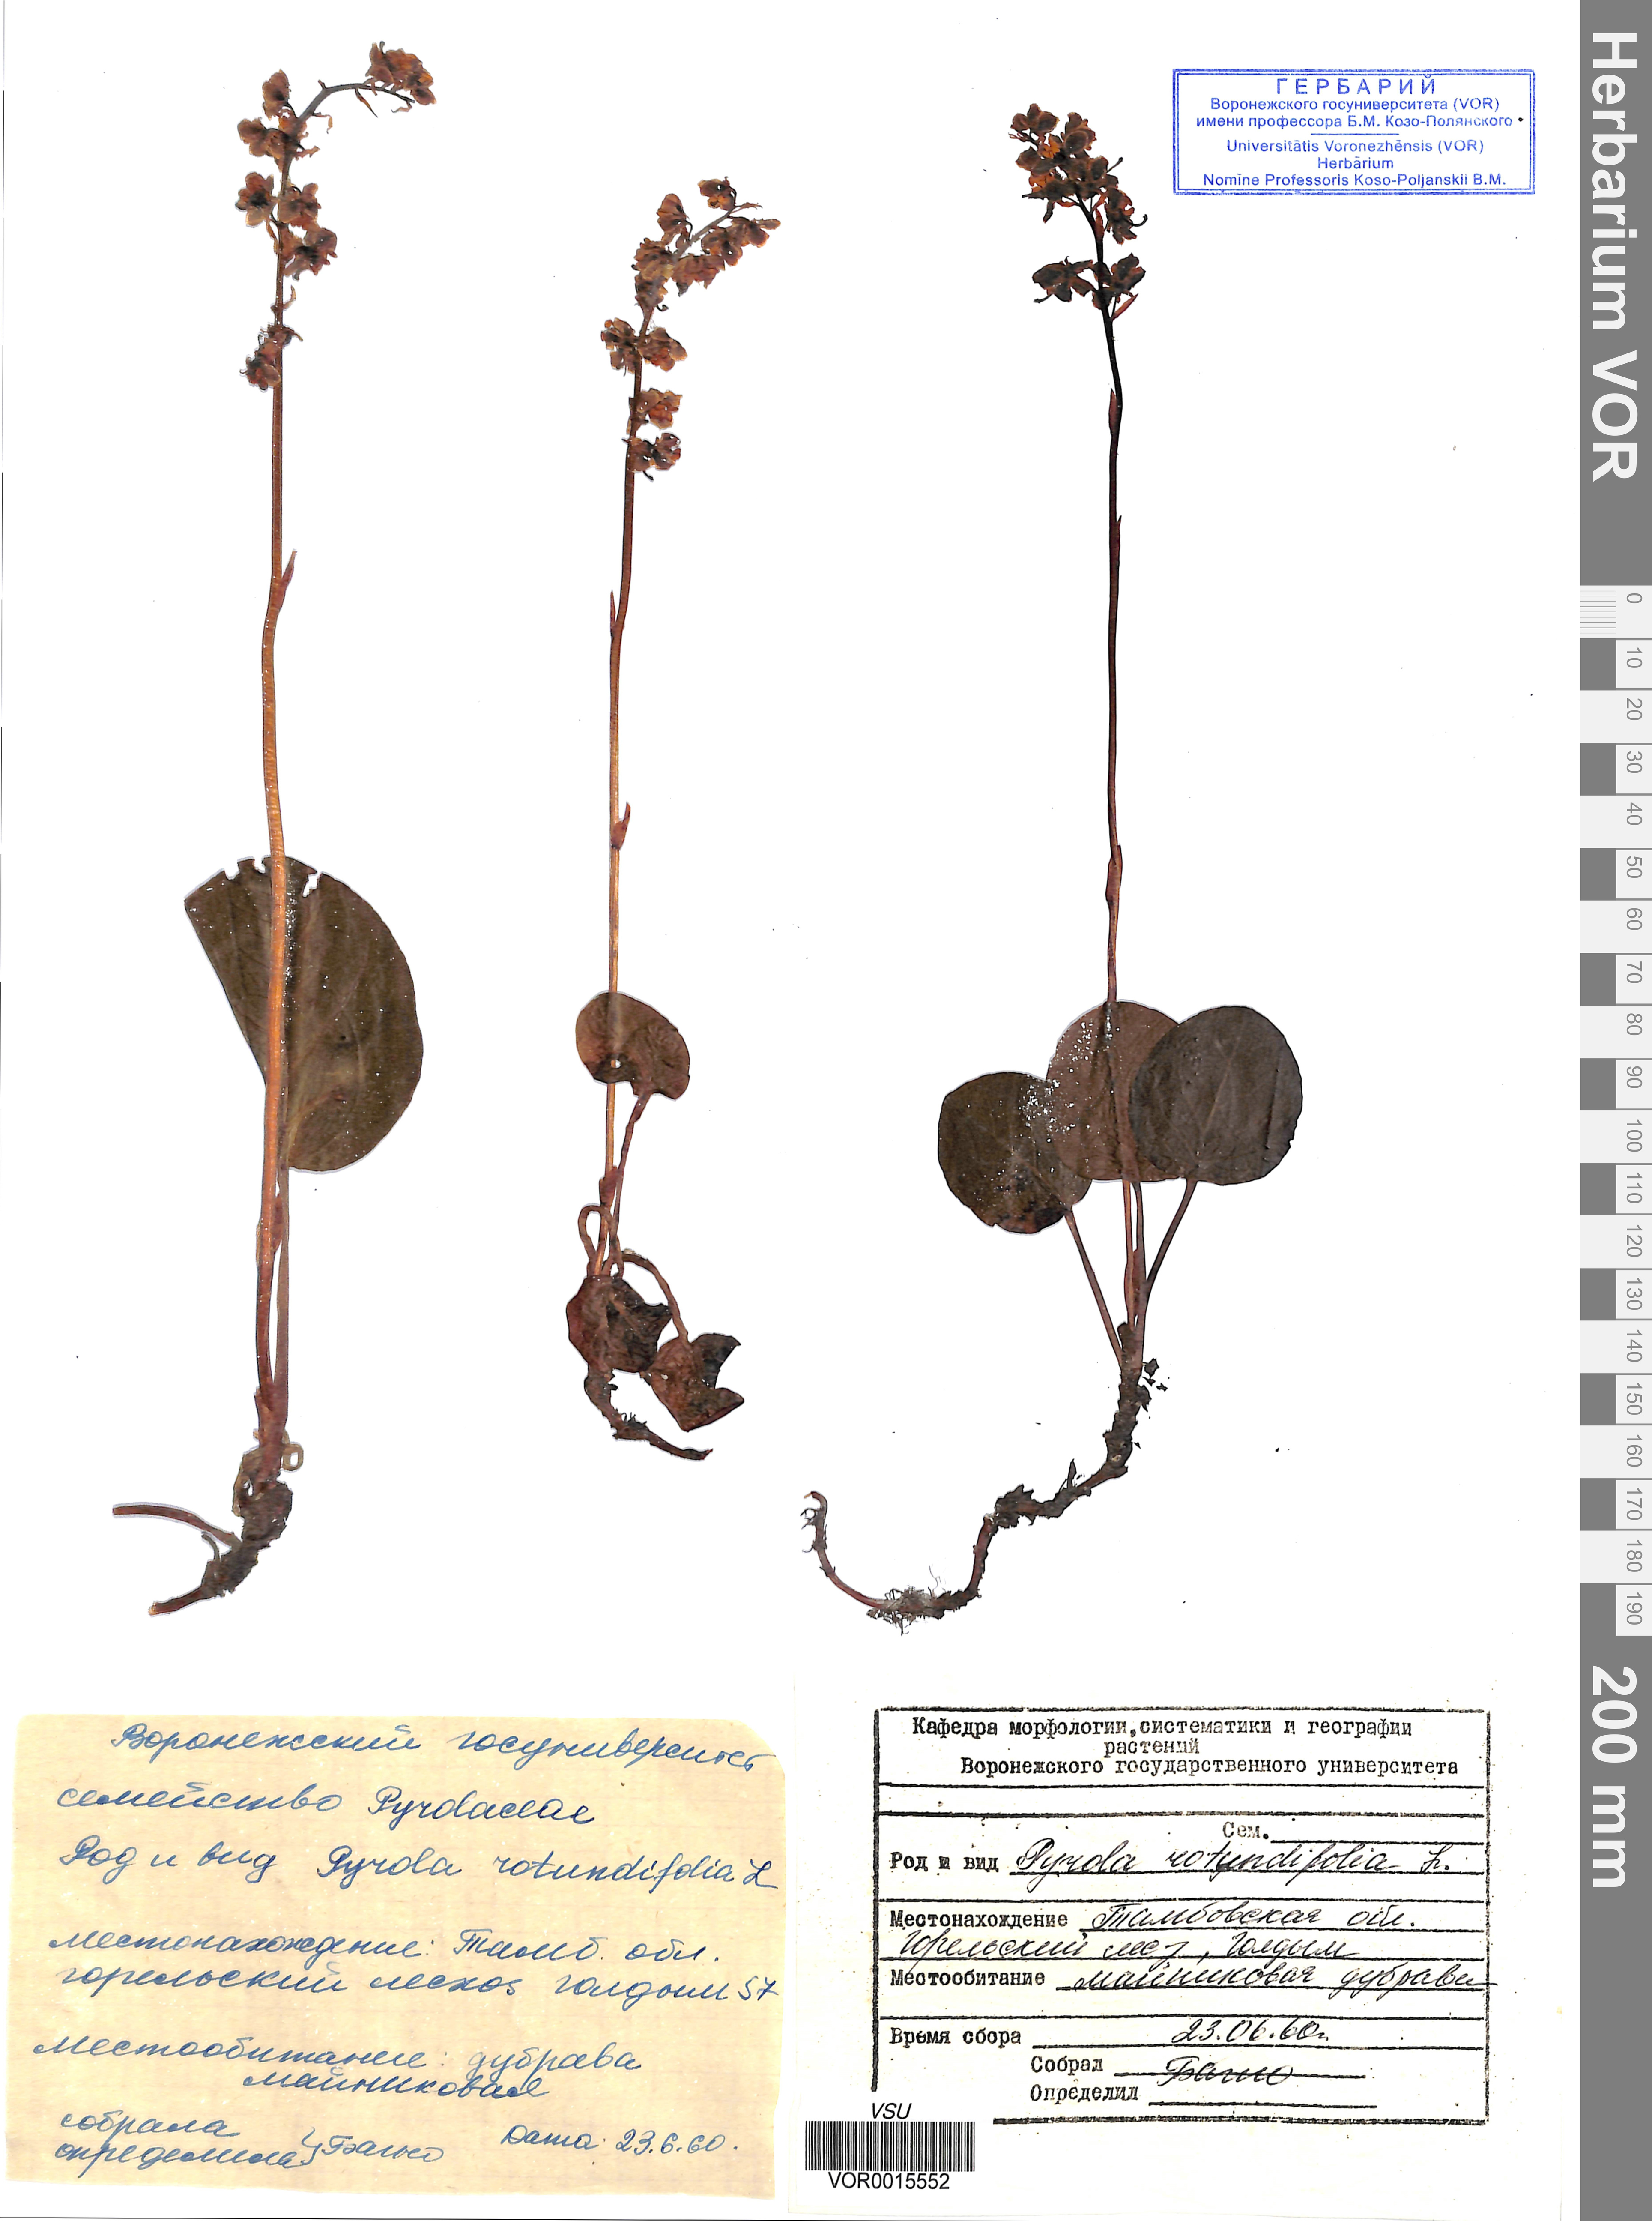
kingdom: Plantae
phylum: Tracheophyta
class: Magnoliopsida
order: Ericales
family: Ericaceae
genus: Pyrola
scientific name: Pyrola rotundifolia
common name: Round-leaved wintergreen
